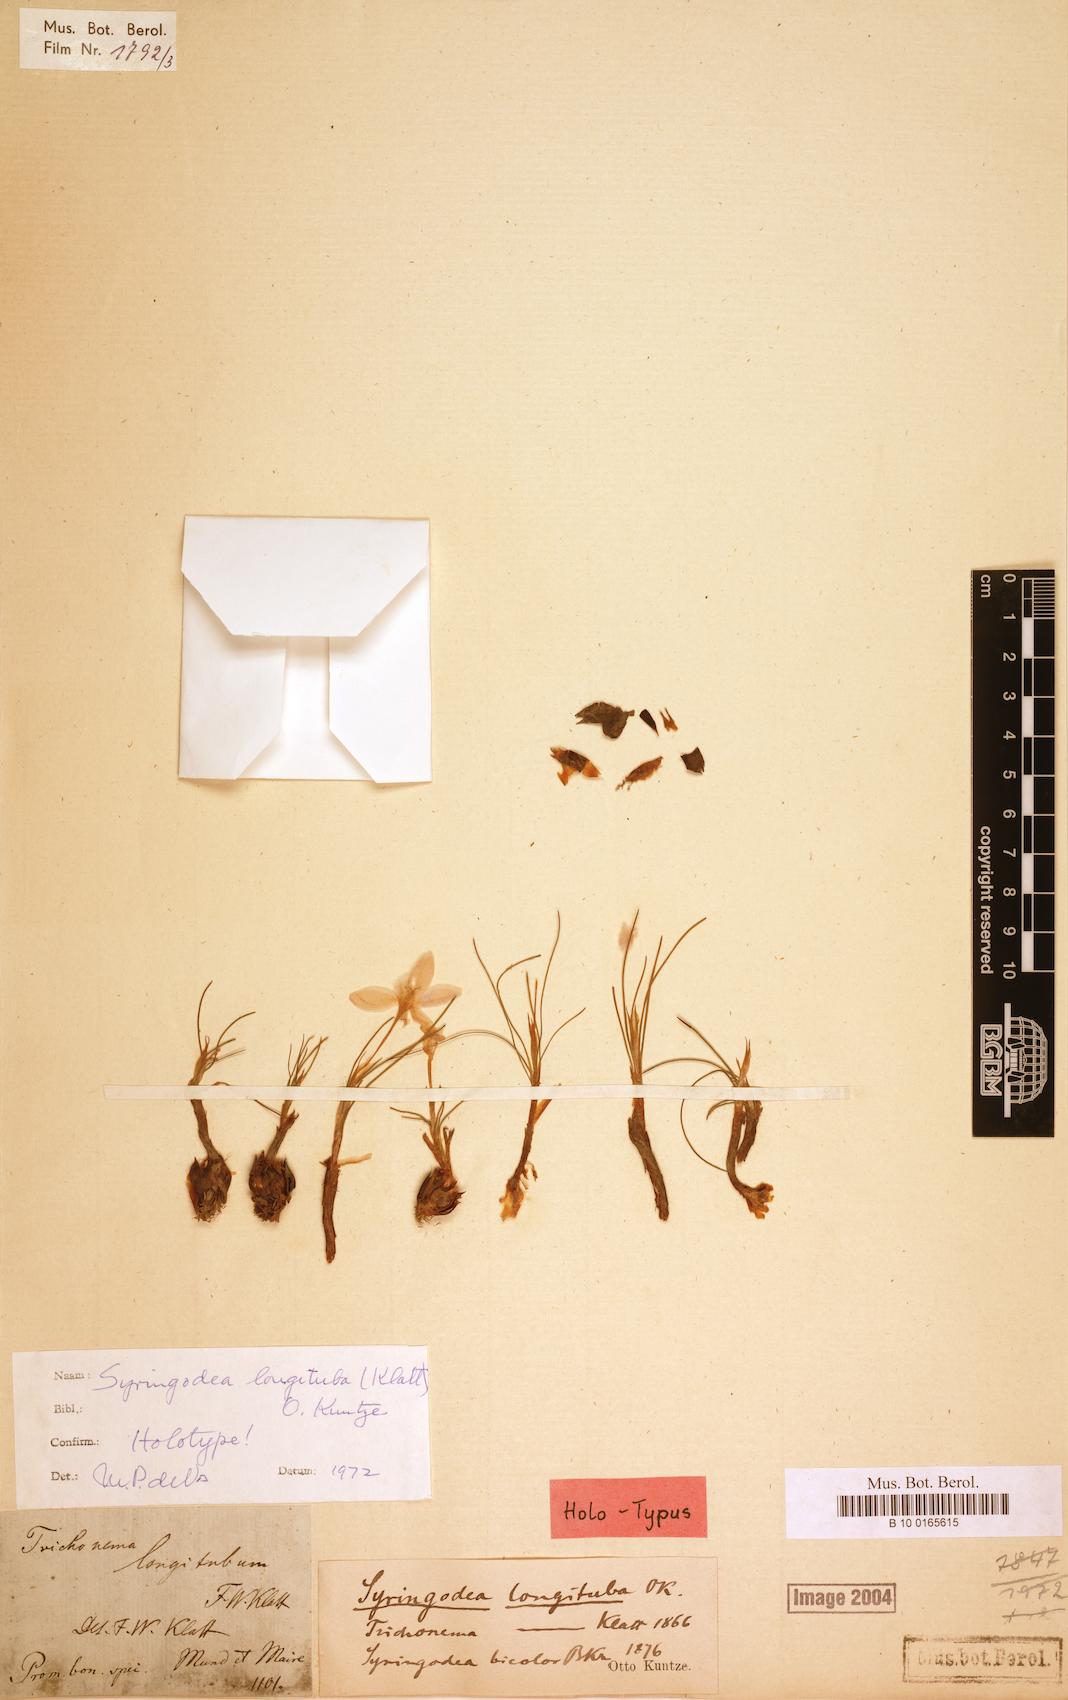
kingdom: Plantae
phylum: Tracheophyta
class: Liliopsida
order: Asparagales
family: Iridaceae
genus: Syringodea
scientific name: Syringodea longituba
